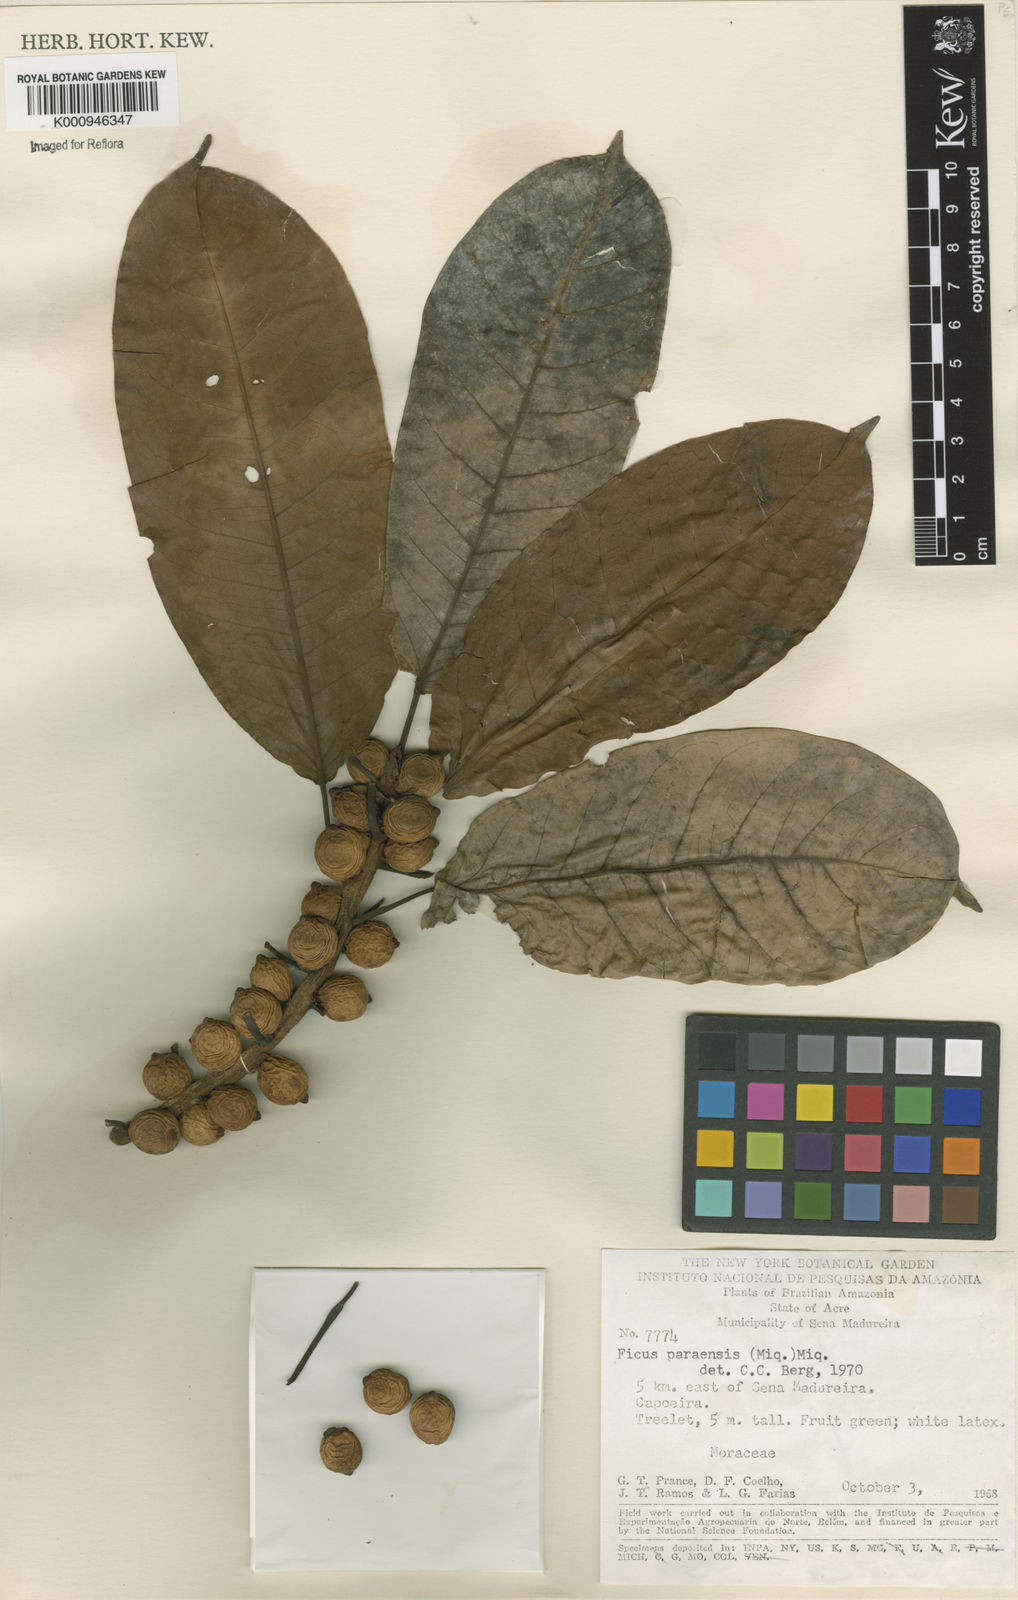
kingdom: Plantae
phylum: Tracheophyta
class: Magnoliopsida
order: Rosales
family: Moraceae
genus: Ficus
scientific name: Ficus paraensis
